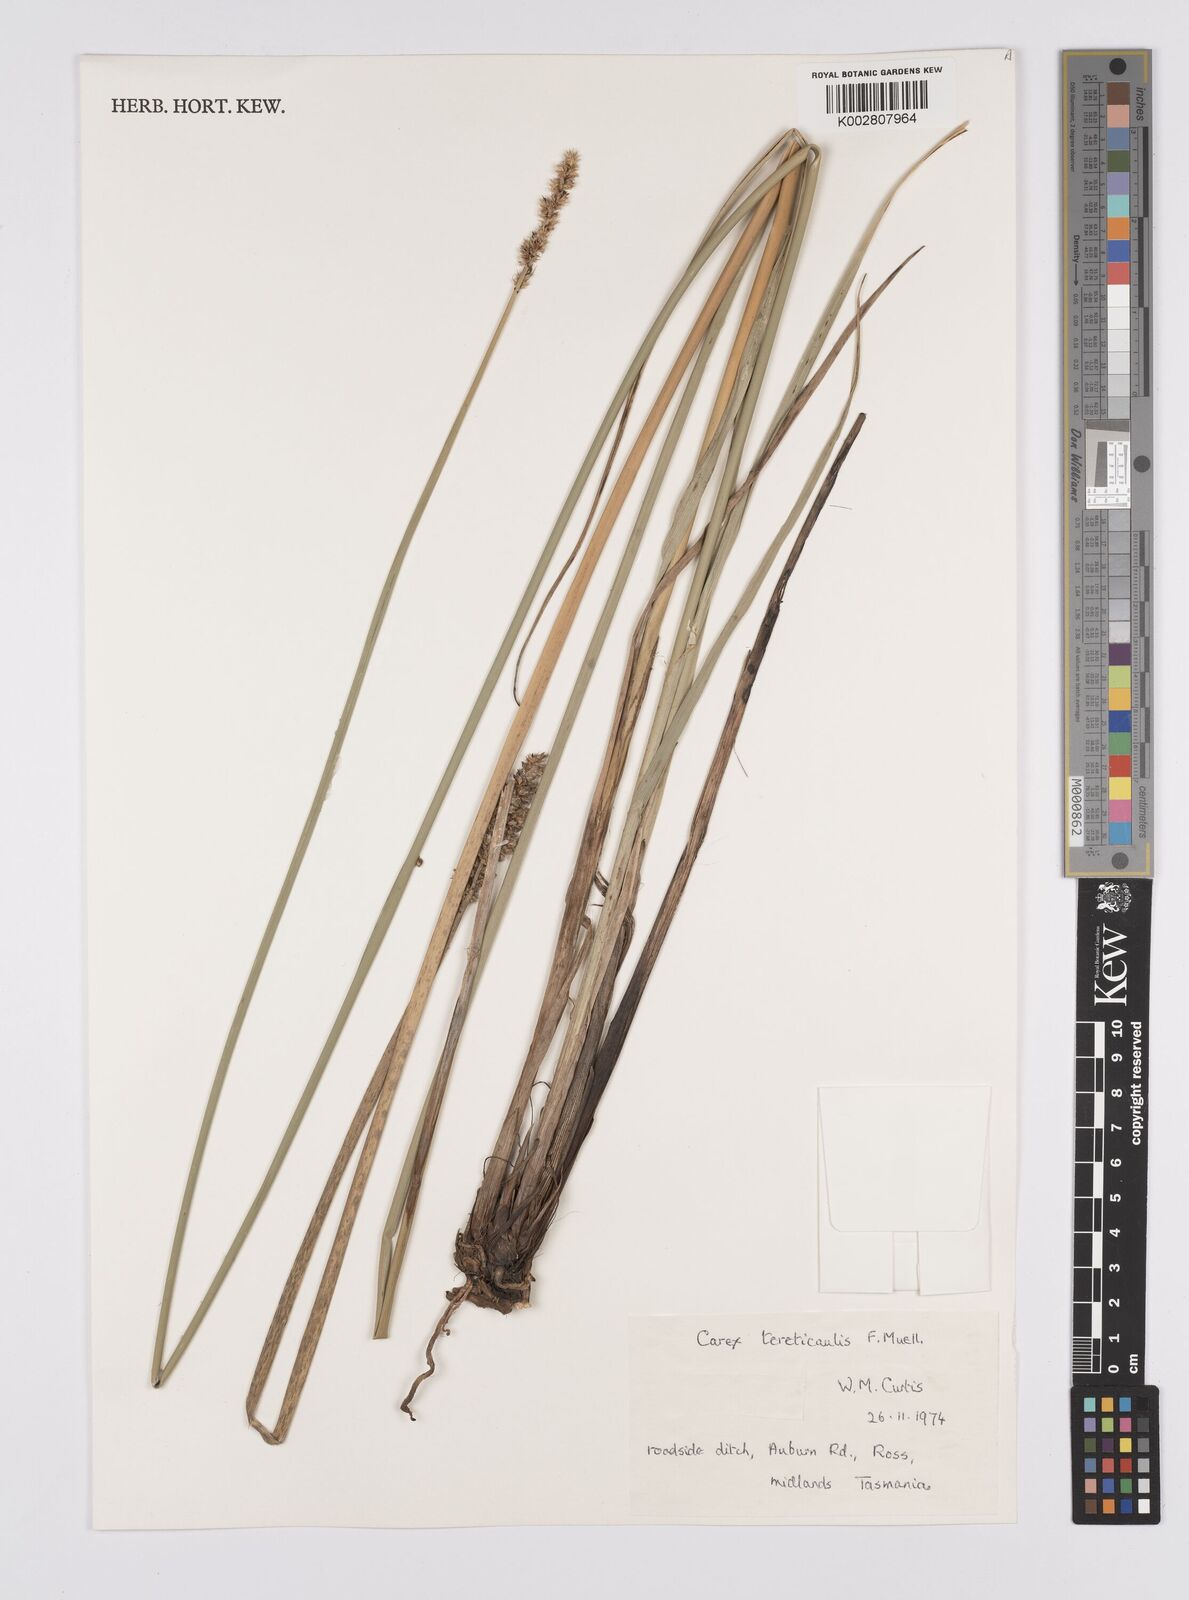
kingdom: Plantae
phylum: Tracheophyta
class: Liliopsida
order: Poales
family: Cyperaceae
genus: Carex
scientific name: Carex tereticaulis
